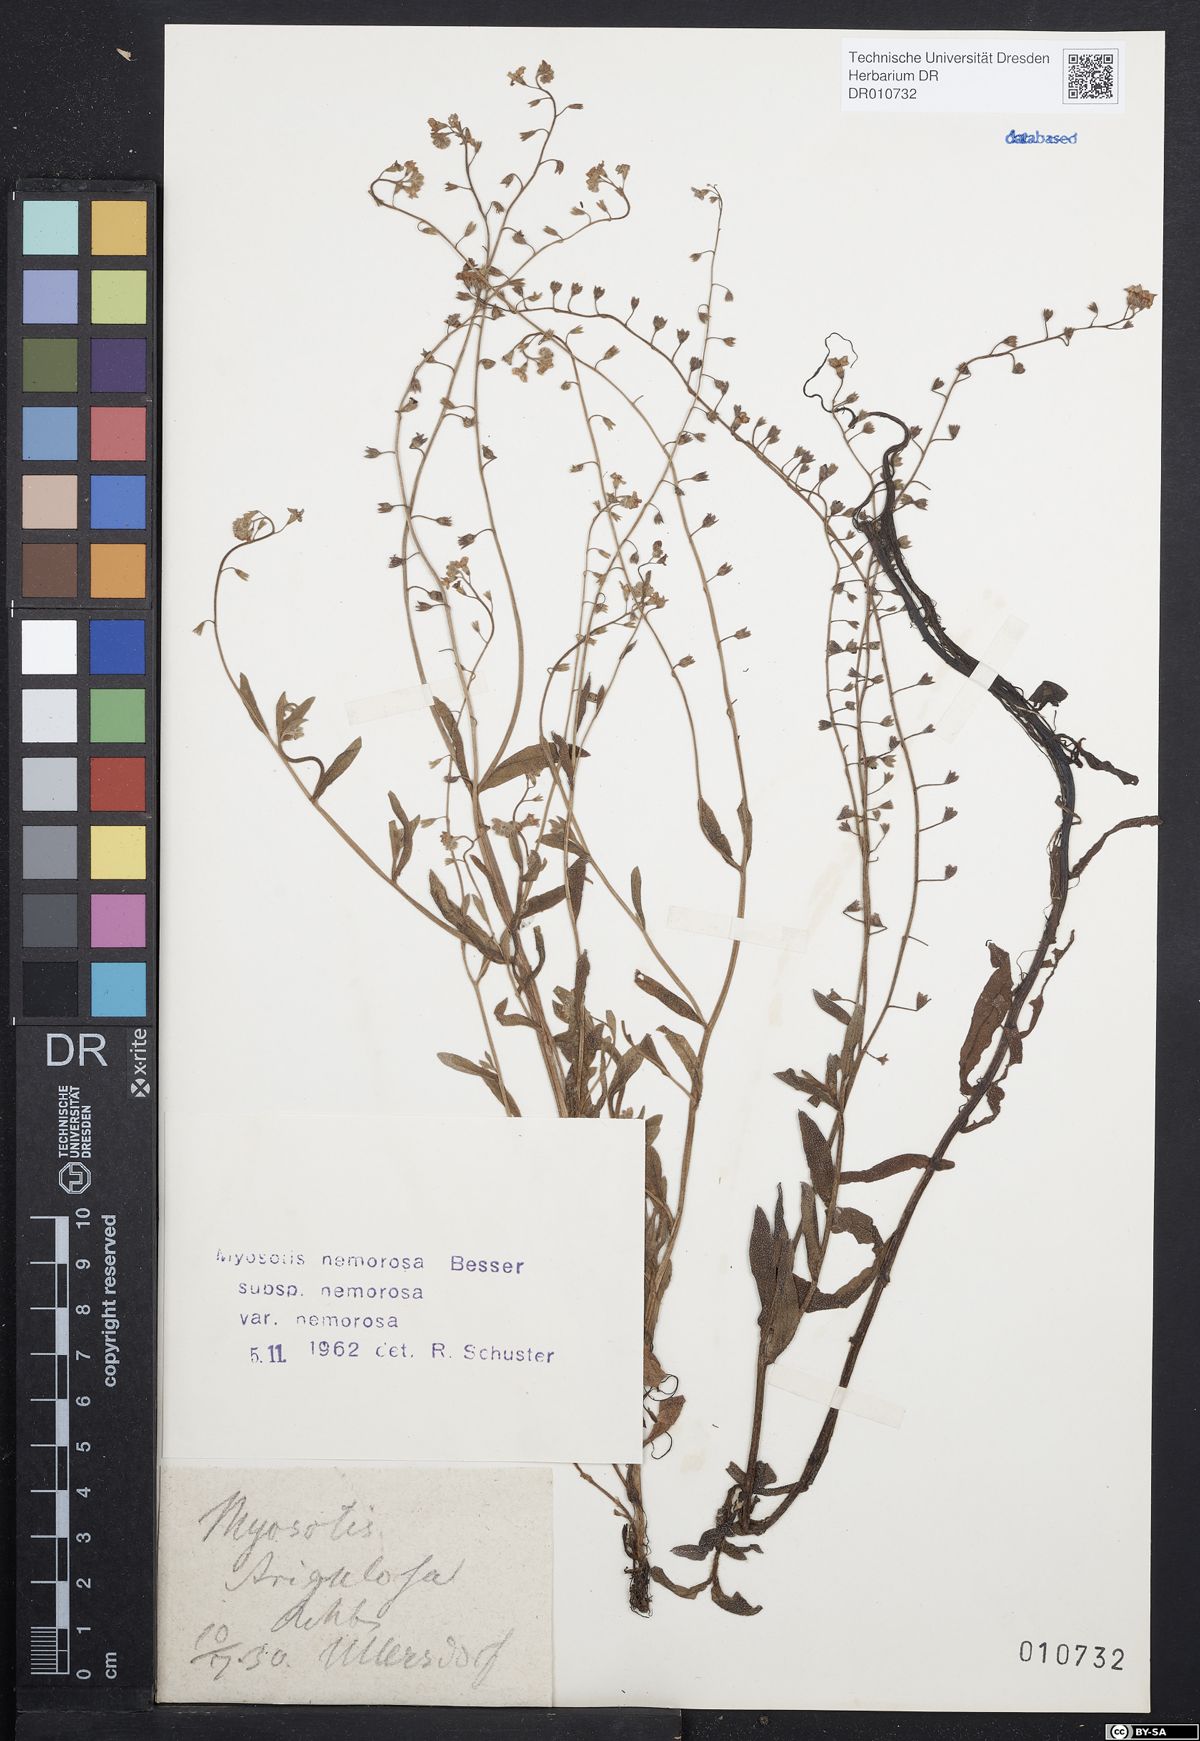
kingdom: Plantae
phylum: Tracheophyta
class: Magnoliopsida
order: Boraginales
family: Boraginaceae
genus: Myosotis
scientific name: Myosotis nemorosa
